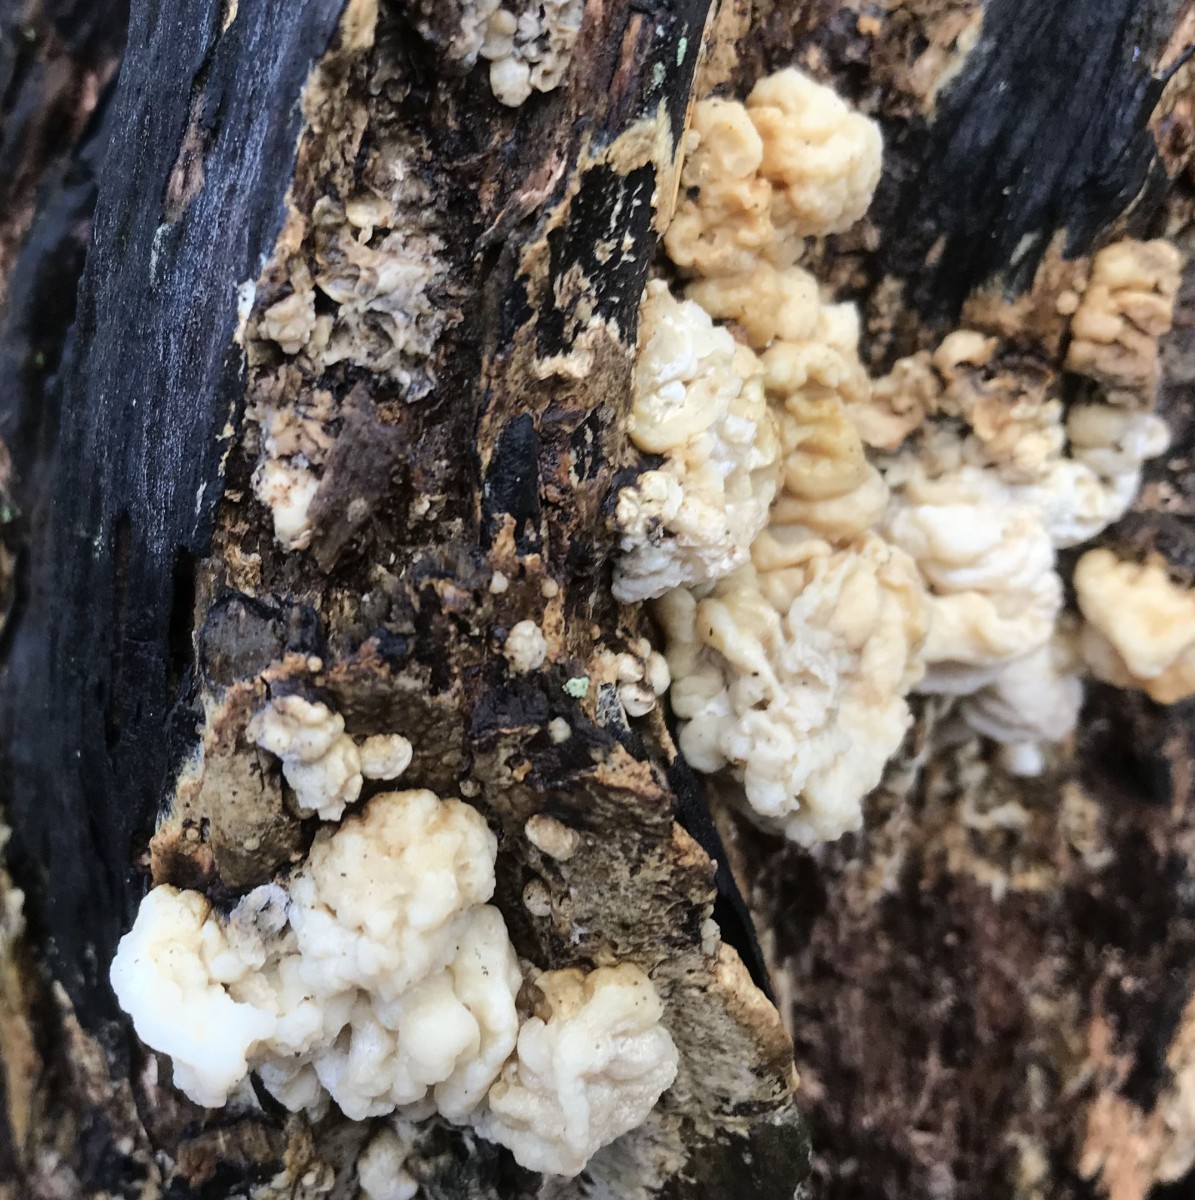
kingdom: Fungi
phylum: Basidiomycota
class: Agaricomycetes
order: Boletales
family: Coniophoraceae
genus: Coniophora
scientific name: Coniophora puteana
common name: gul tømmersvamp
